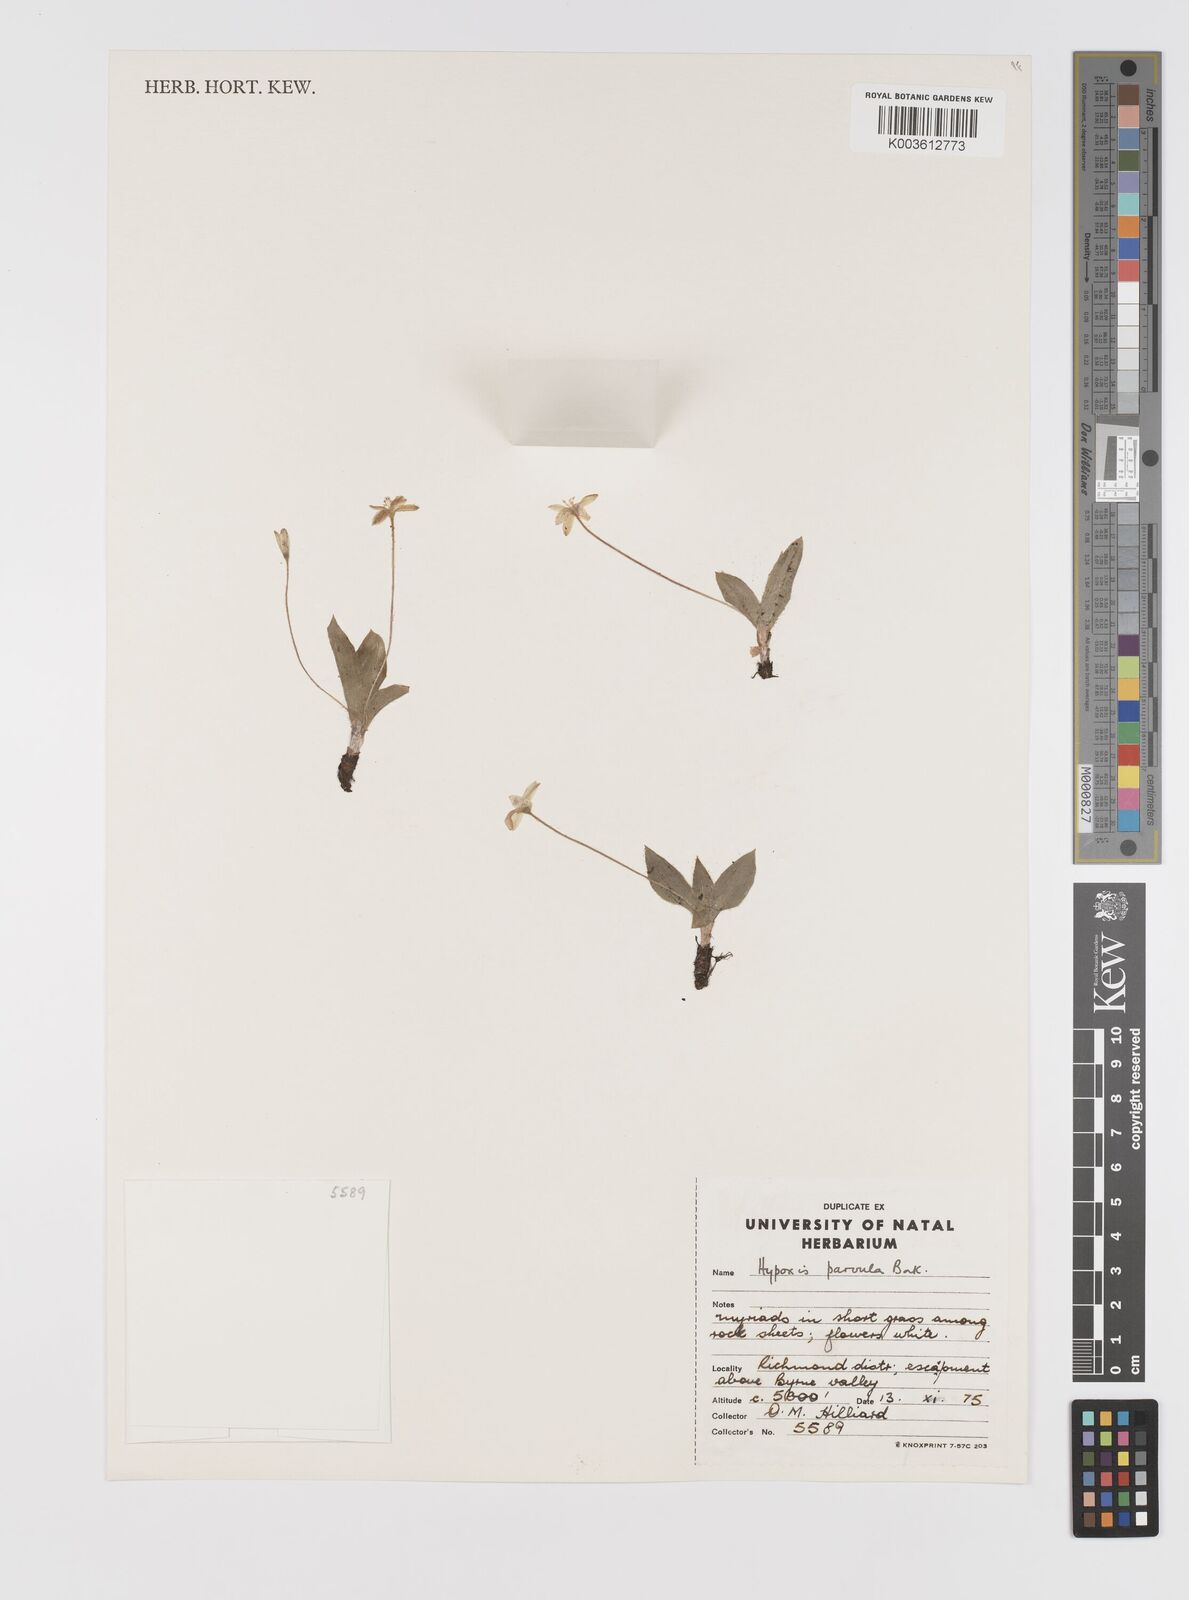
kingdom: Plantae
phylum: Tracheophyta
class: Liliopsida
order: Asparagales
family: Hypoxidaceae
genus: Hypoxis
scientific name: Hypoxis parvula
